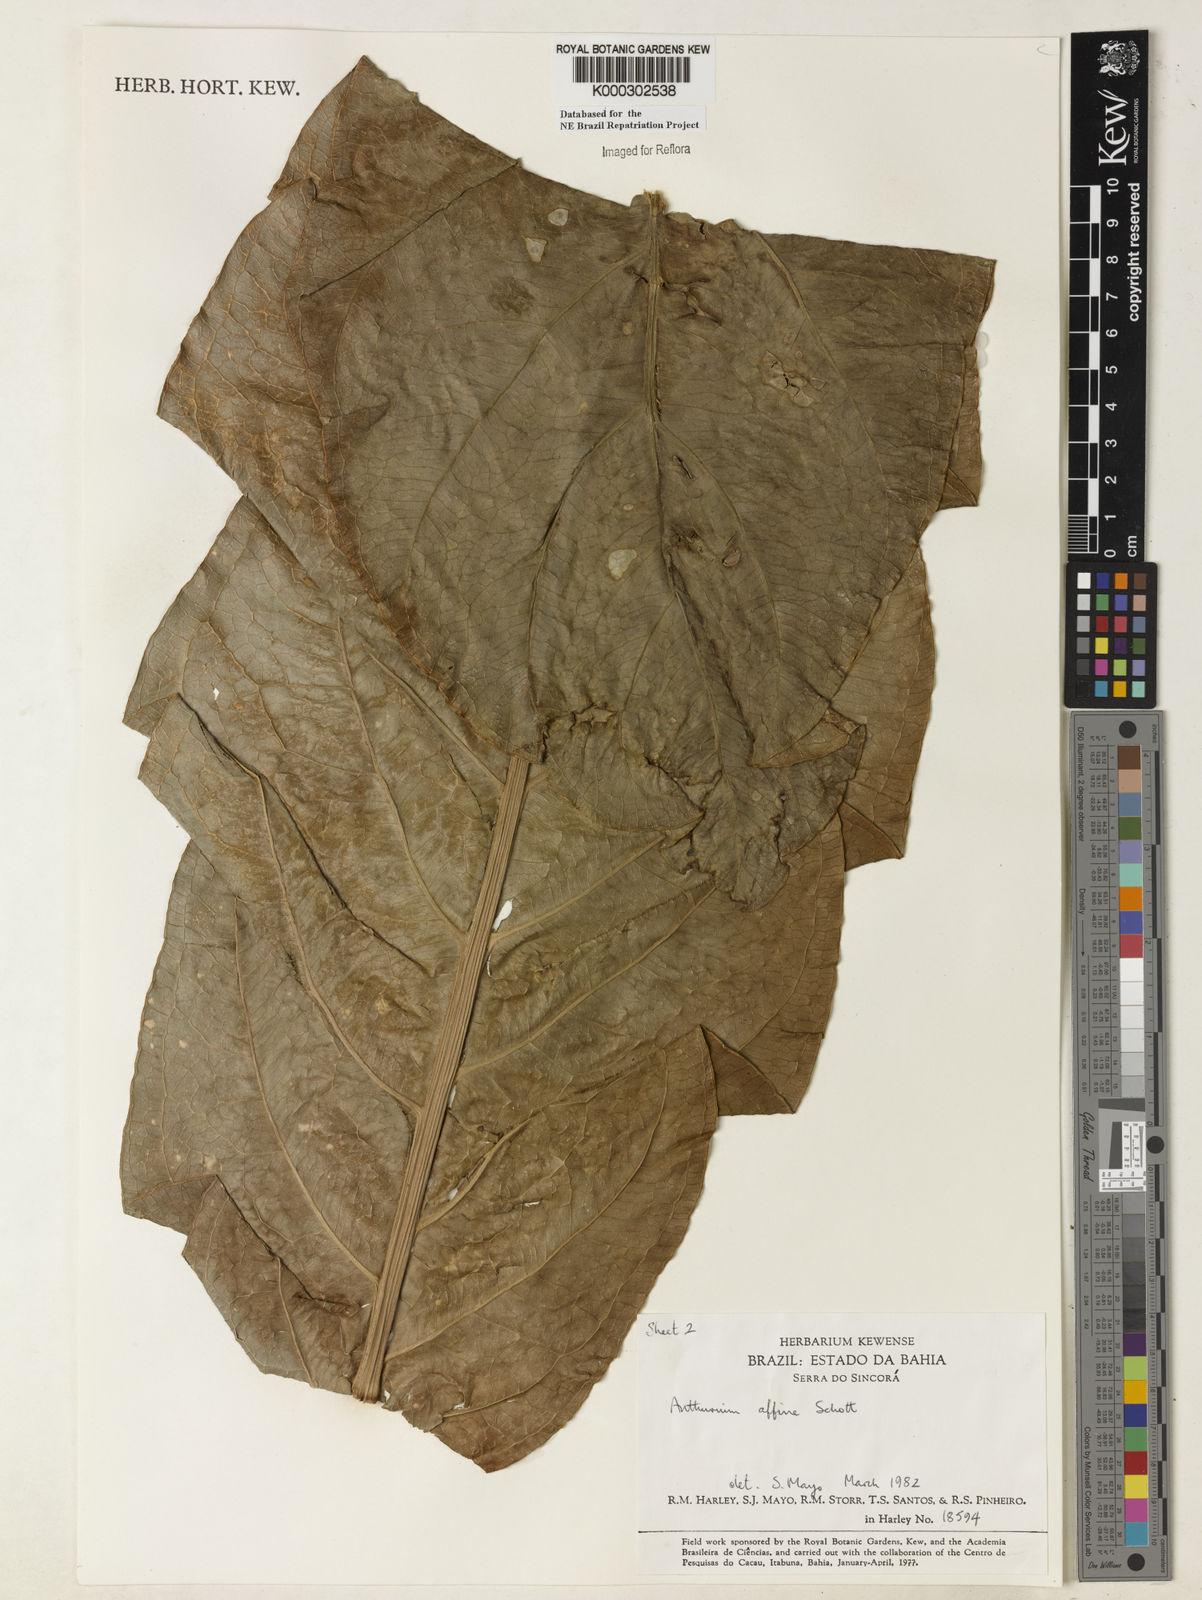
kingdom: Plantae
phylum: Tracheophyta
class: Liliopsida
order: Alismatales
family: Araceae
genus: Anthurium
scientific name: Anthurium affine
